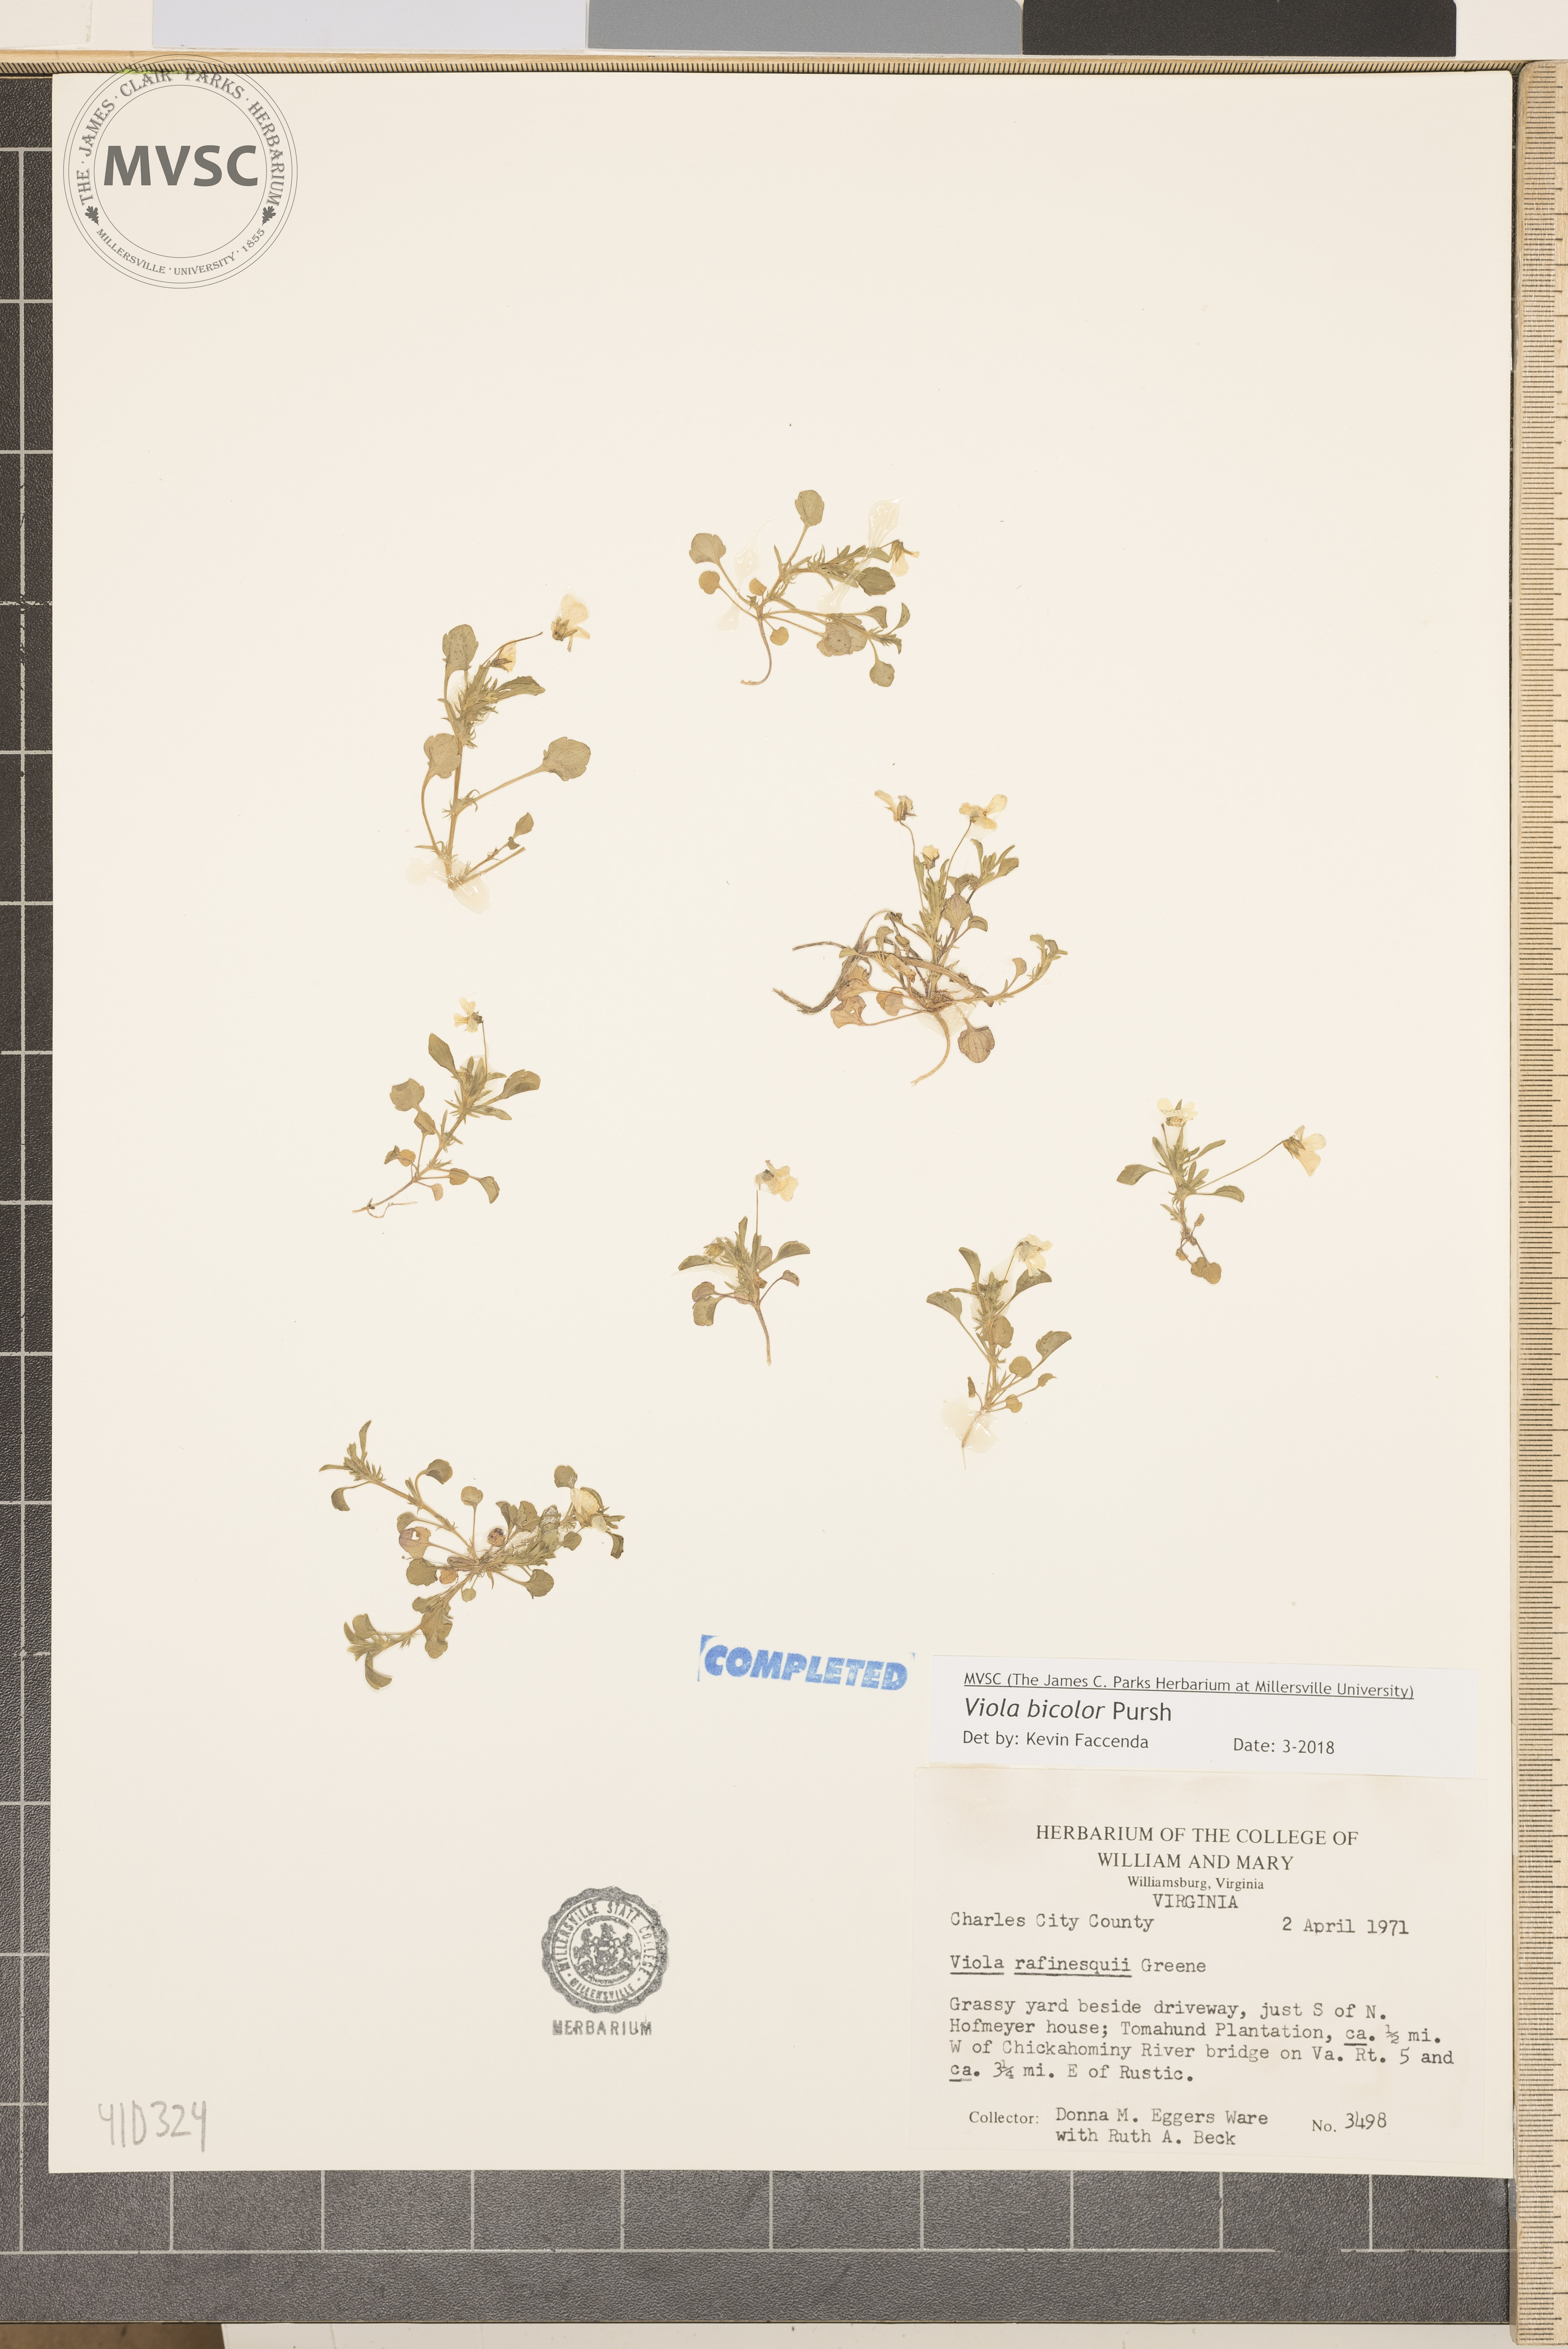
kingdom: Plantae
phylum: Tracheophyta
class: Magnoliopsida
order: Malpighiales
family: Violaceae
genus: Viola
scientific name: Viola rafinesquei
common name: American field pansy
